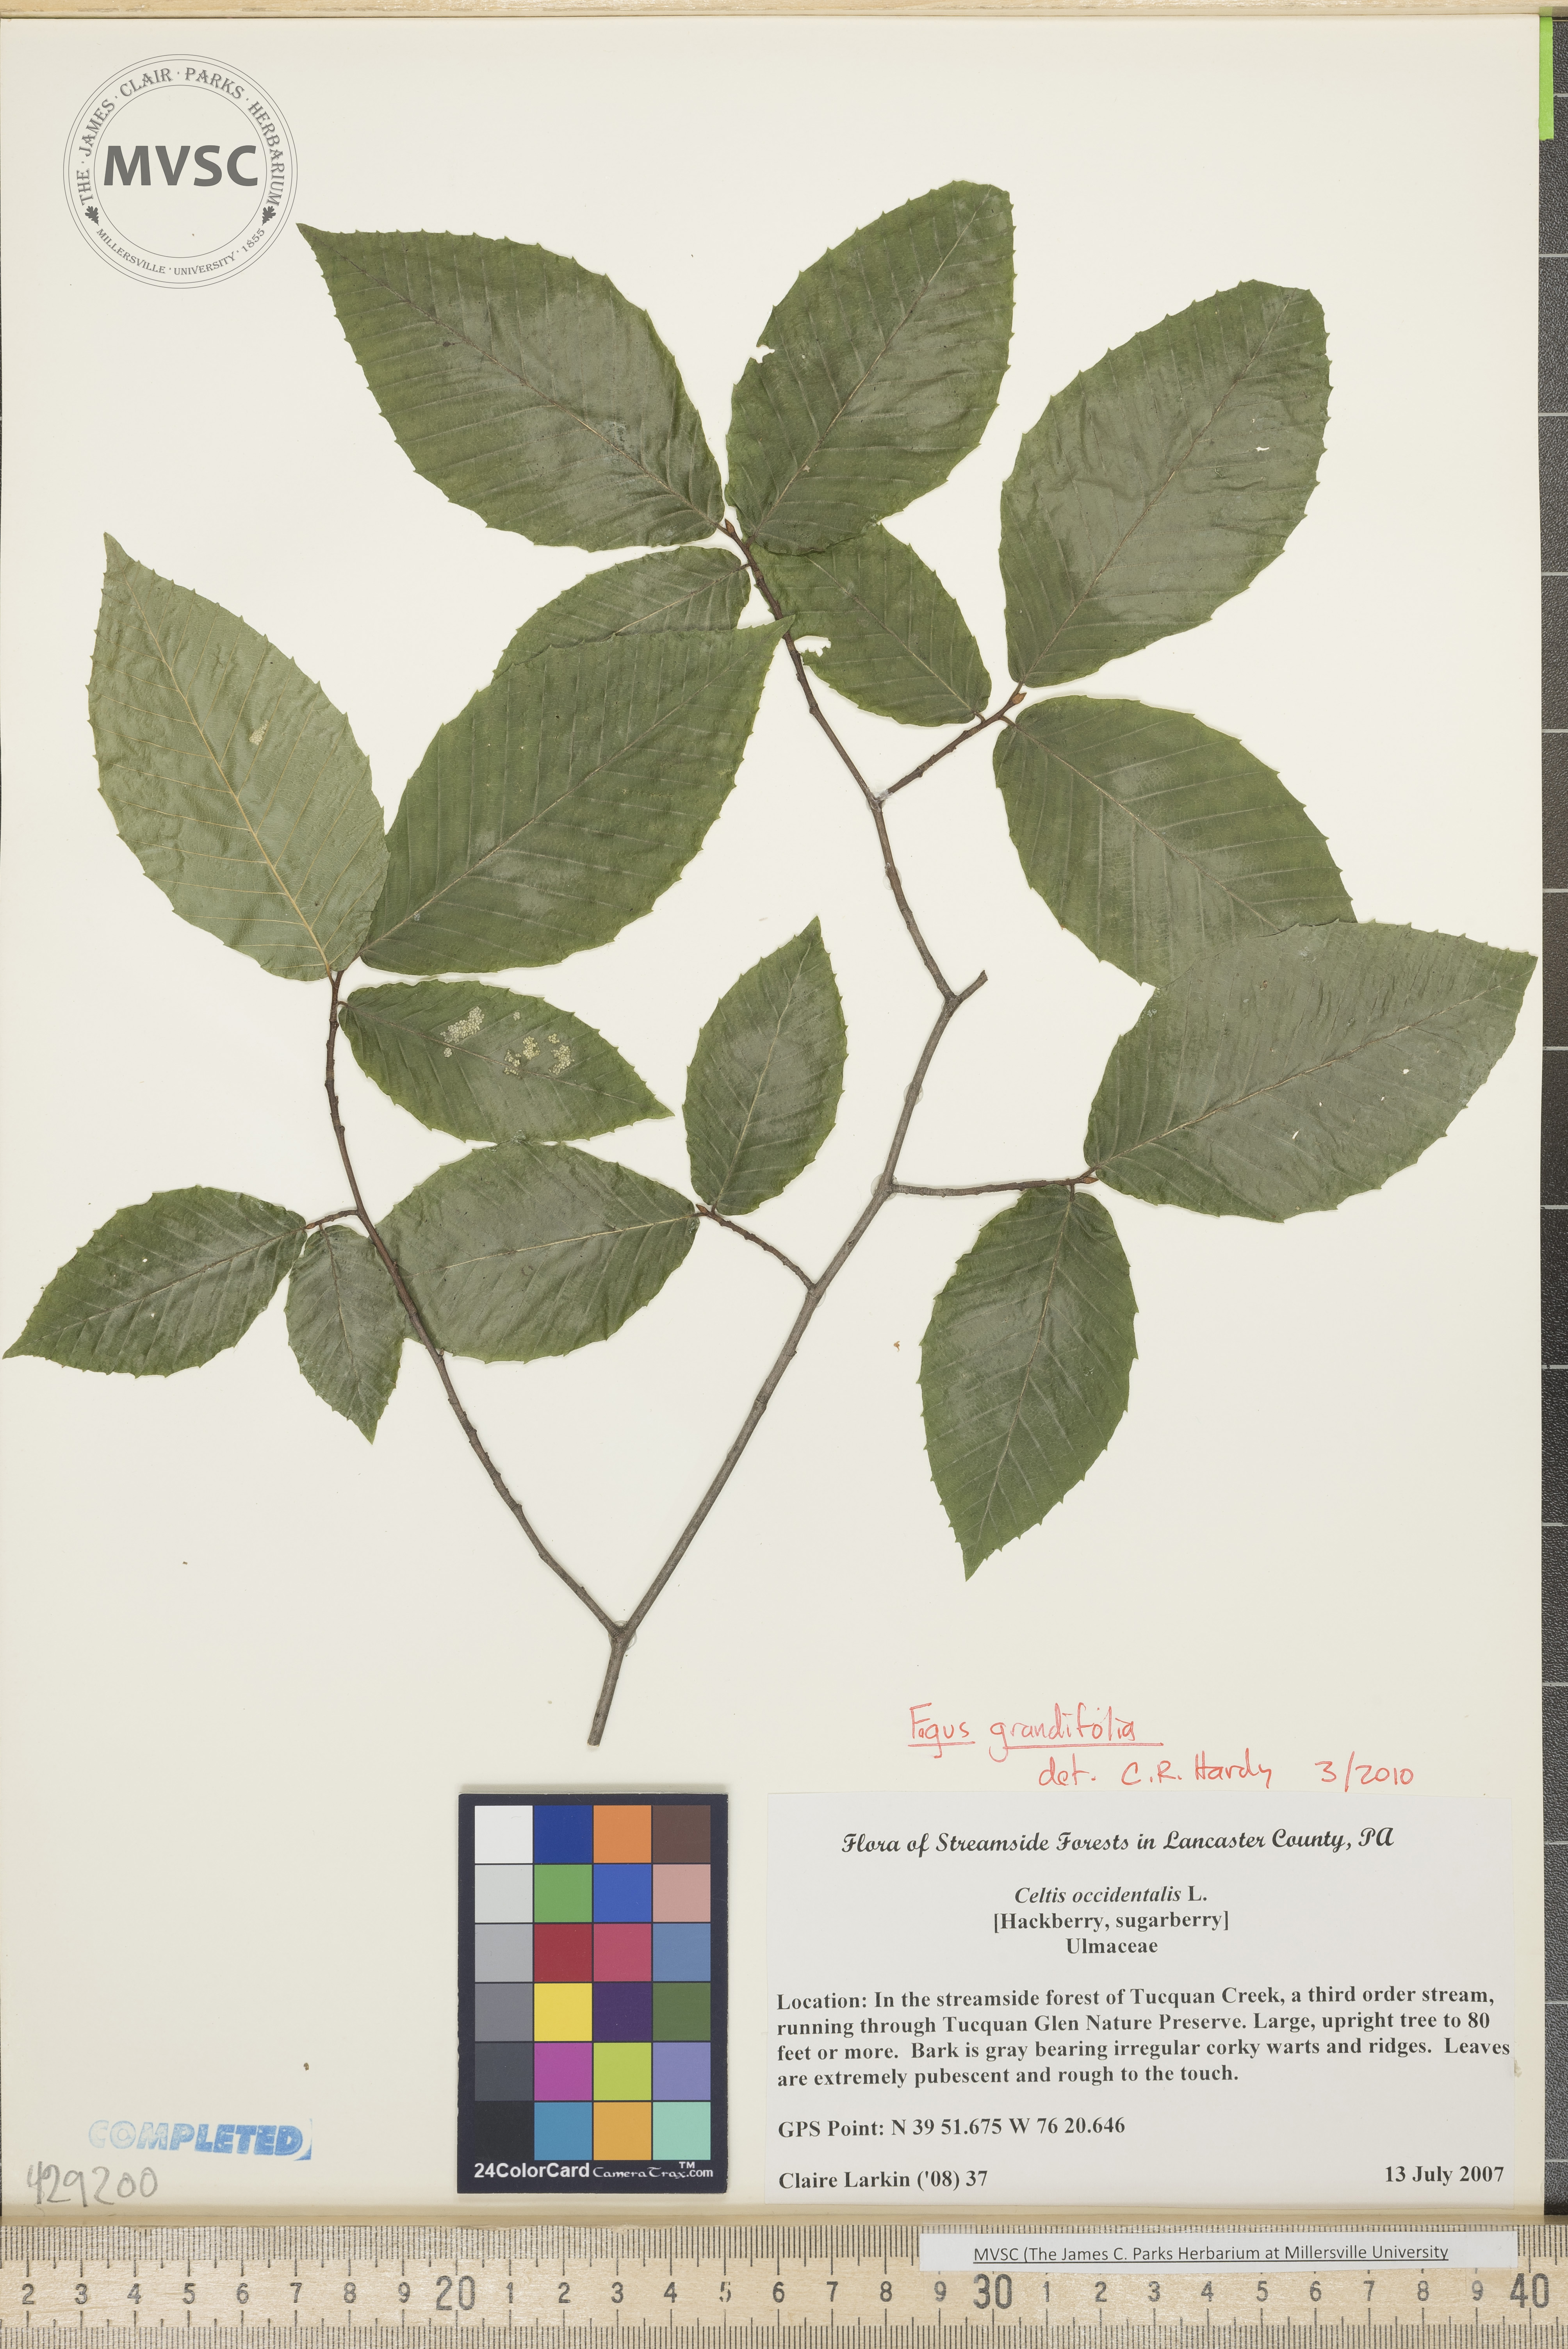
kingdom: Plantae
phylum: Tracheophyta
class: Magnoliopsida
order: Fagales
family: Fagaceae
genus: Fagus
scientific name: Fagus grandiflora
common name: Beech
